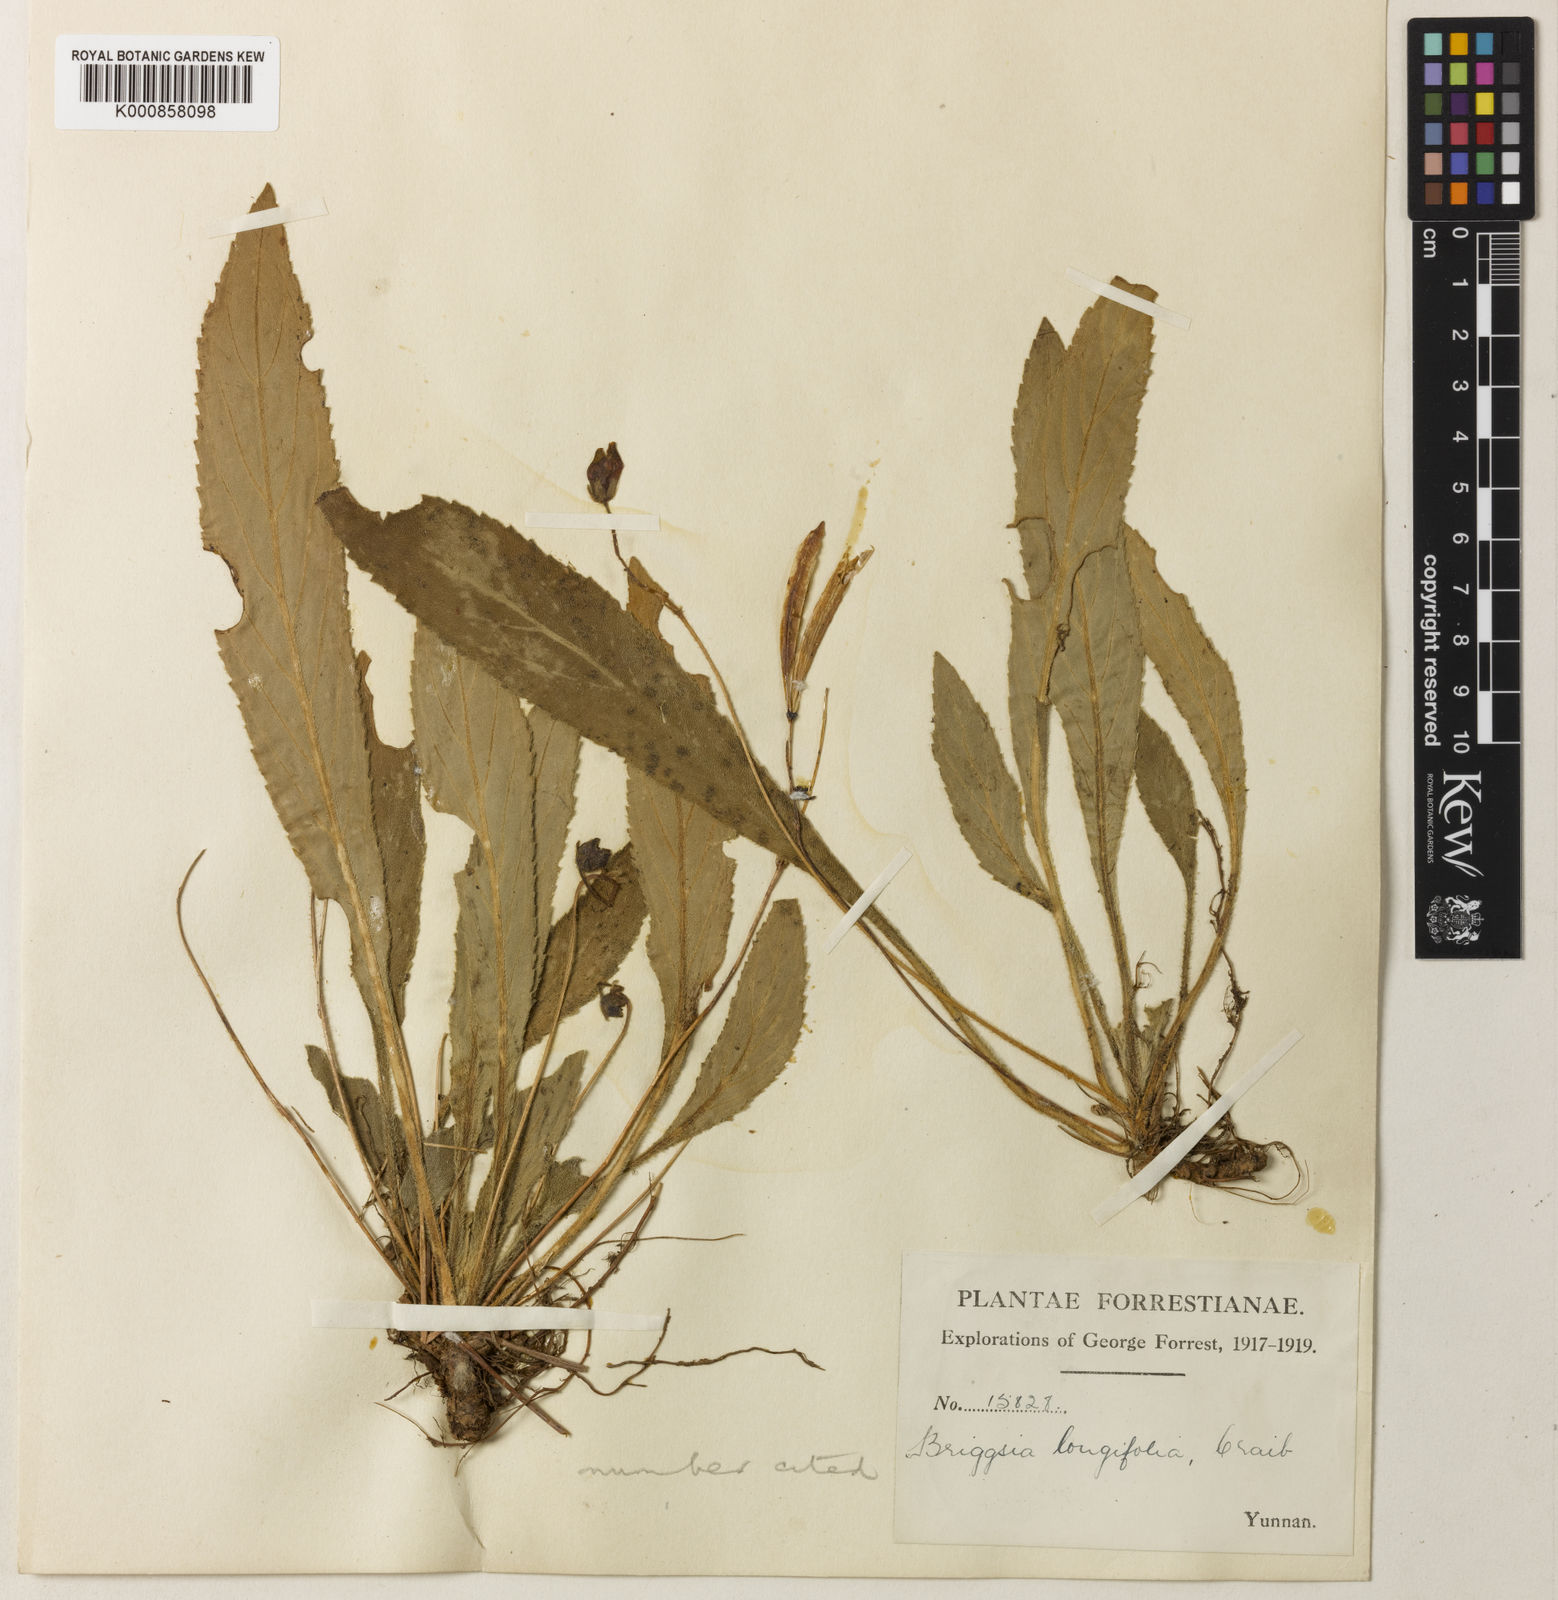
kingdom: Plantae
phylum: Tracheophyta
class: Magnoliopsida
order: Lamiales
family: Gesneriaceae
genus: Oreocharis
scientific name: Oreocharis
